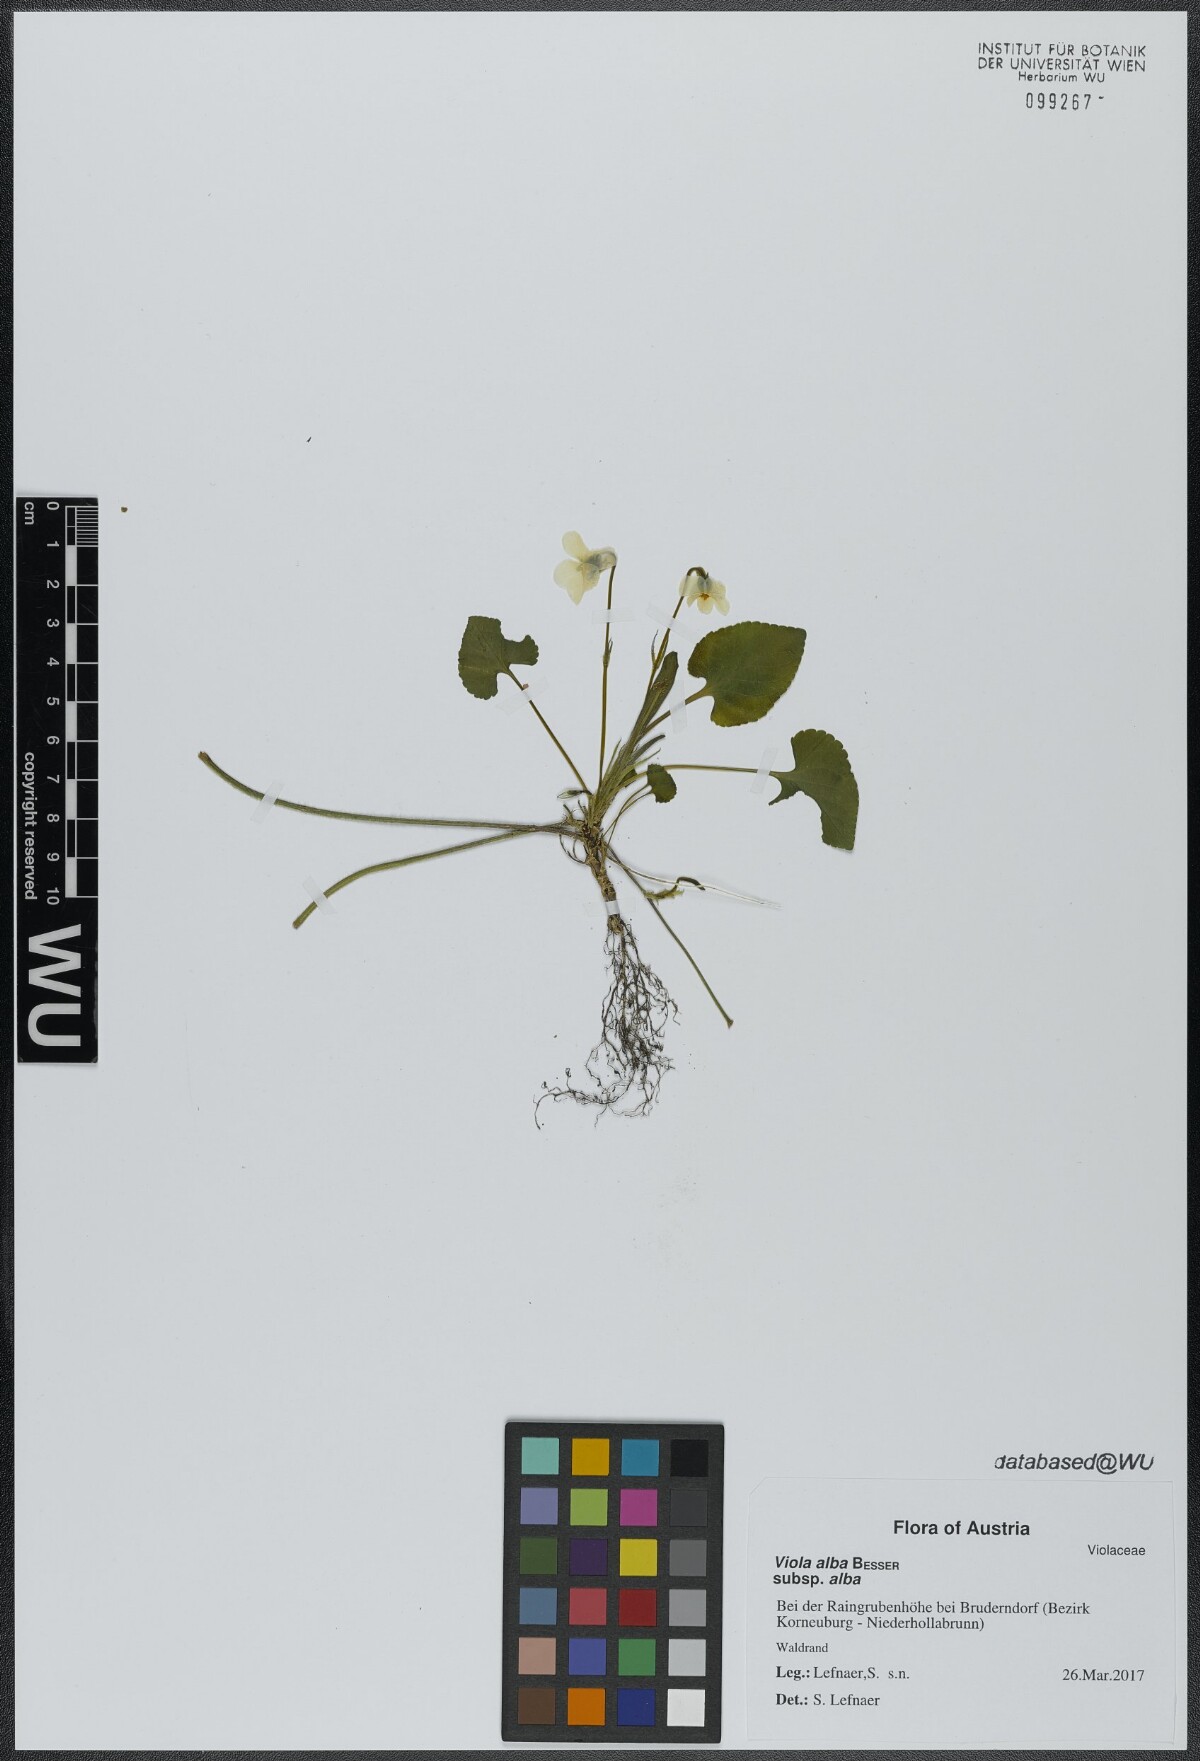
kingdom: Plantae
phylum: Tracheophyta
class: Magnoliopsida
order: Malpighiales
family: Violaceae
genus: Viola
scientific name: Viola alba
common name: White violet
